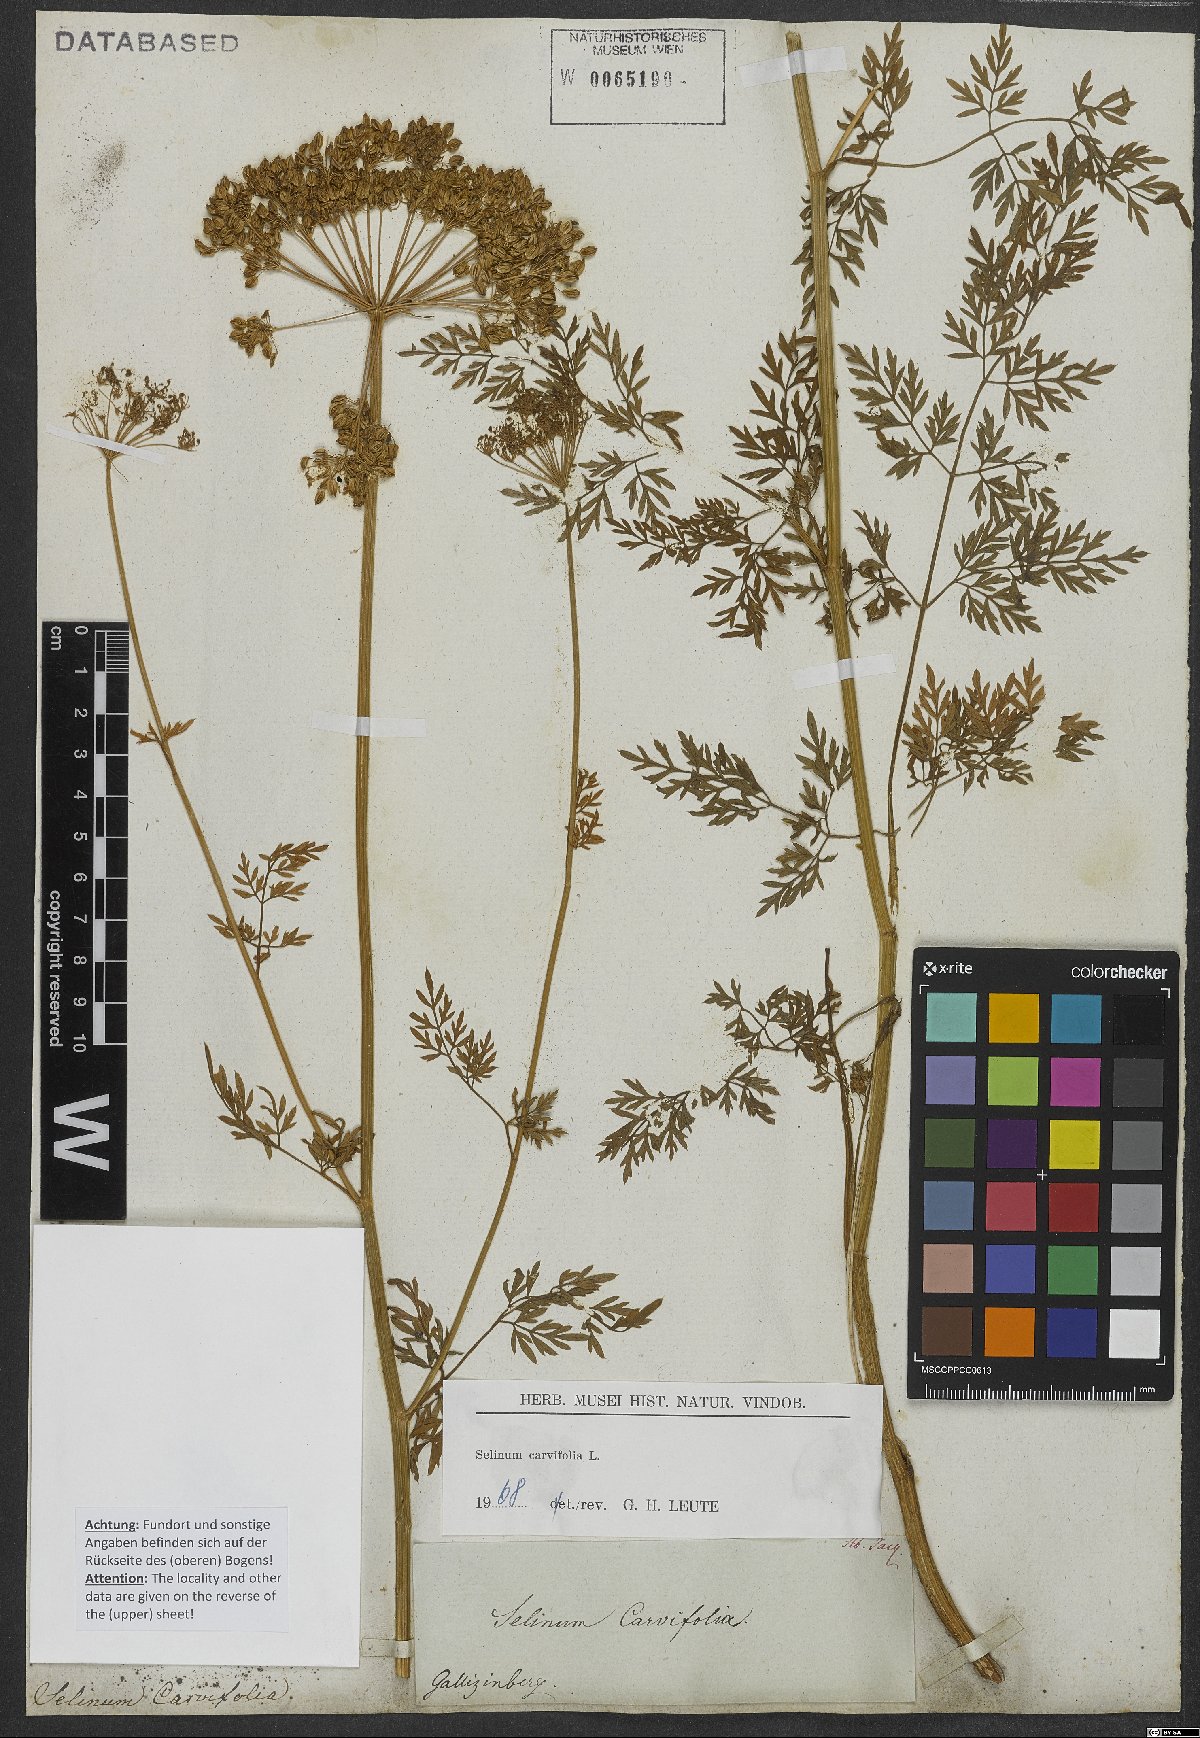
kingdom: Plantae
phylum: Tracheophyta
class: Magnoliopsida
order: Apiales
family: Apiaceae
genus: Selinum
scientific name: Selinum carvifolia
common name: Cambridge milk-parsley
